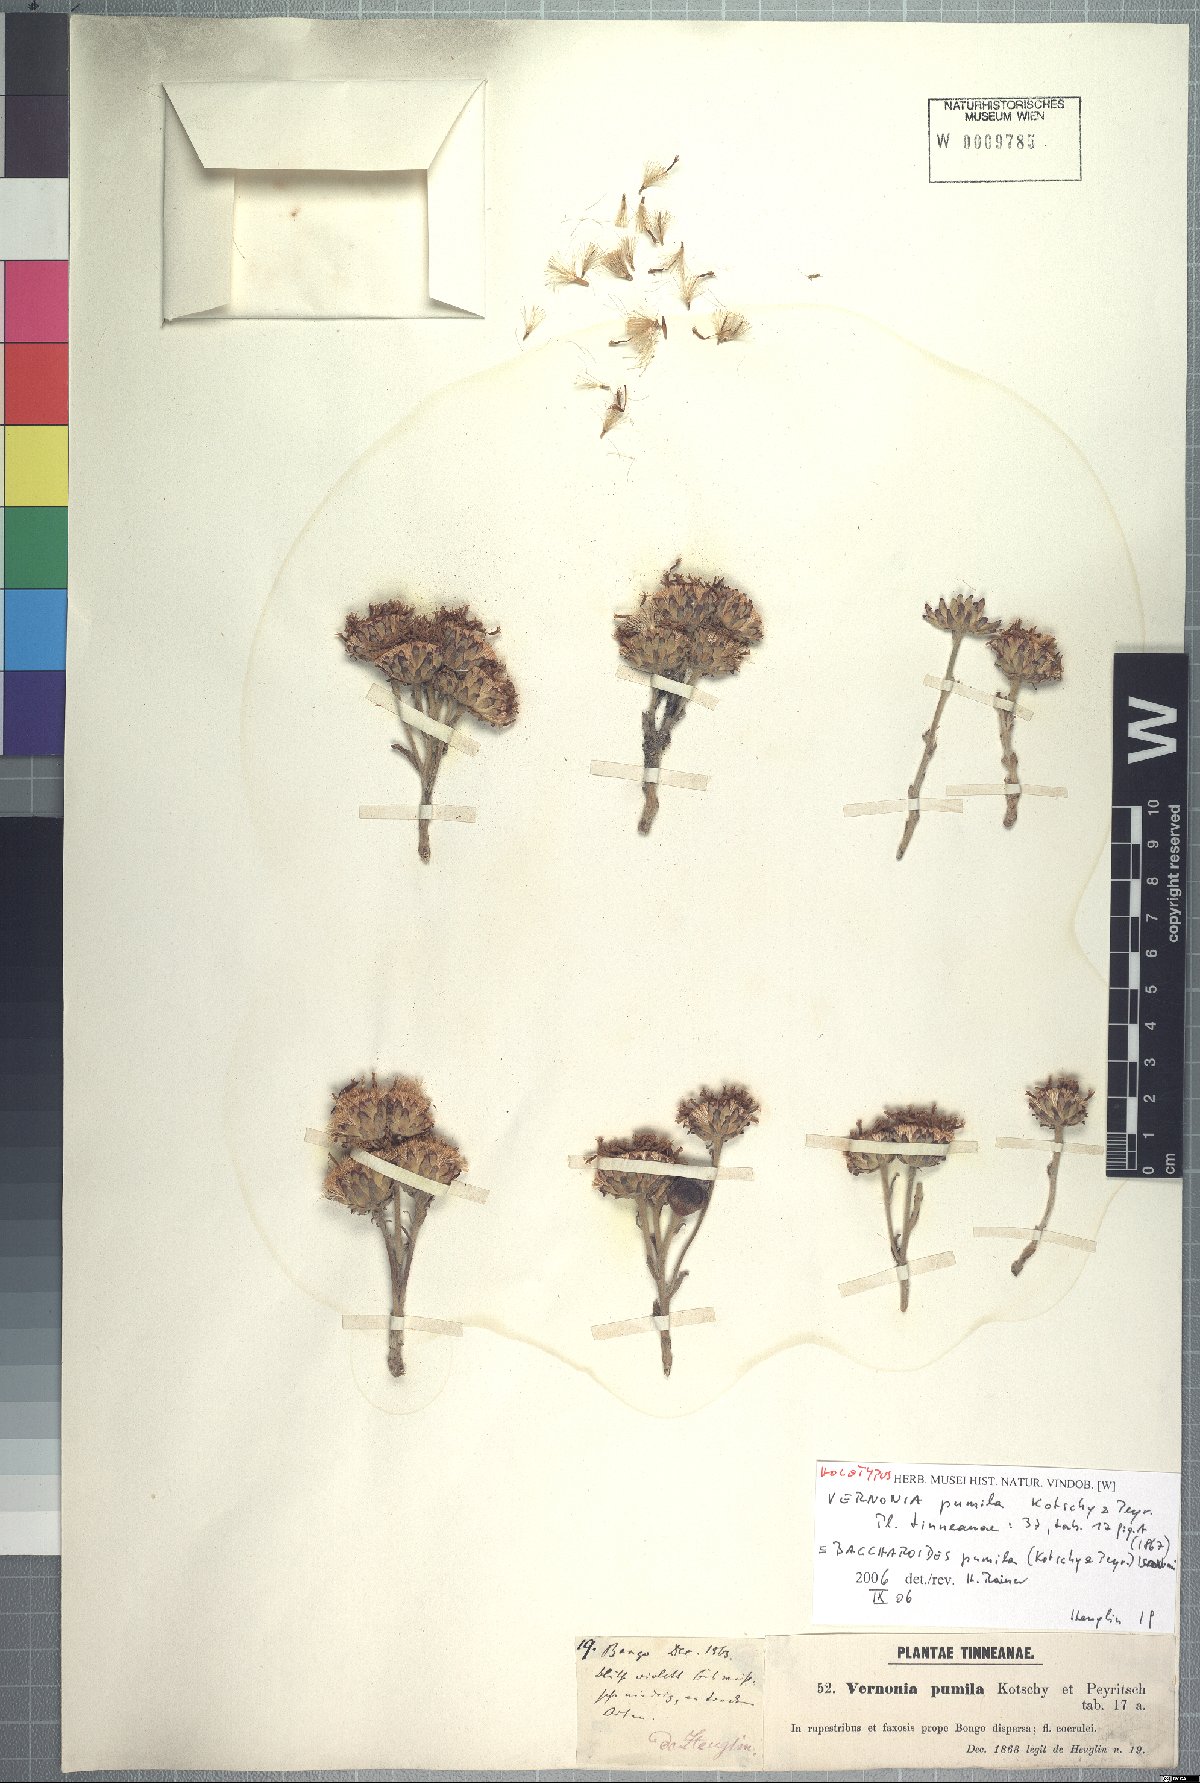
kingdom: Plantae
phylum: Tracheophyta
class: Magnoliopsida
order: Asterales
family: Asteraceae
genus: Baccharoides
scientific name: Baccharoides pumila
